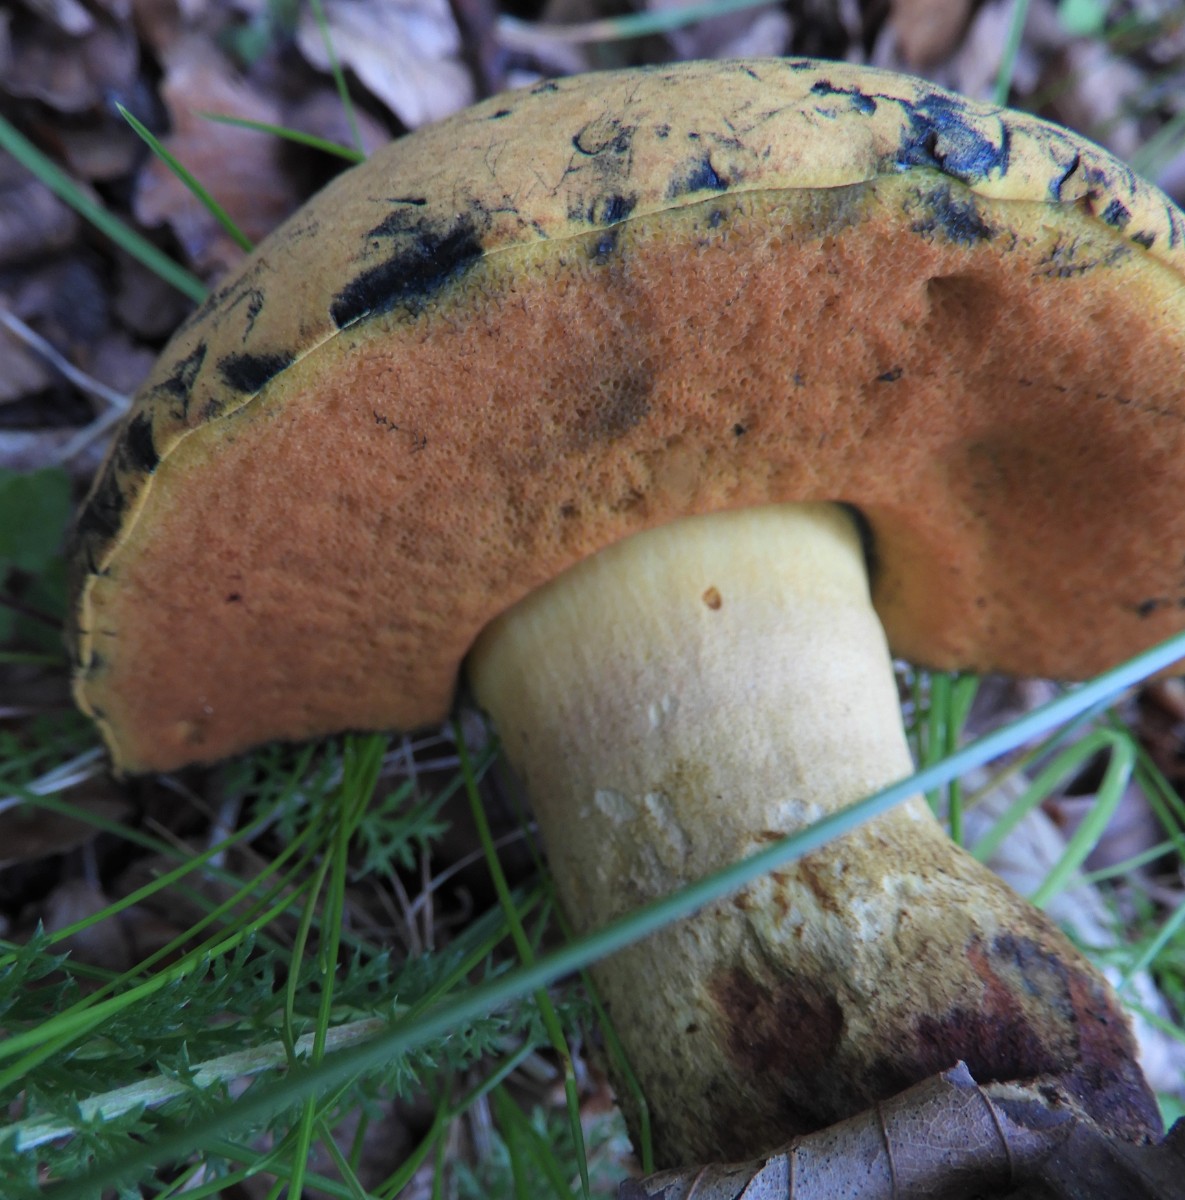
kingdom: Fungi
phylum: Basidiomycota
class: Agaricomycetes
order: Boletales
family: Boletaceae
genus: Suillellus
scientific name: Suillellus queletii
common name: glatstokket indigorørhat
